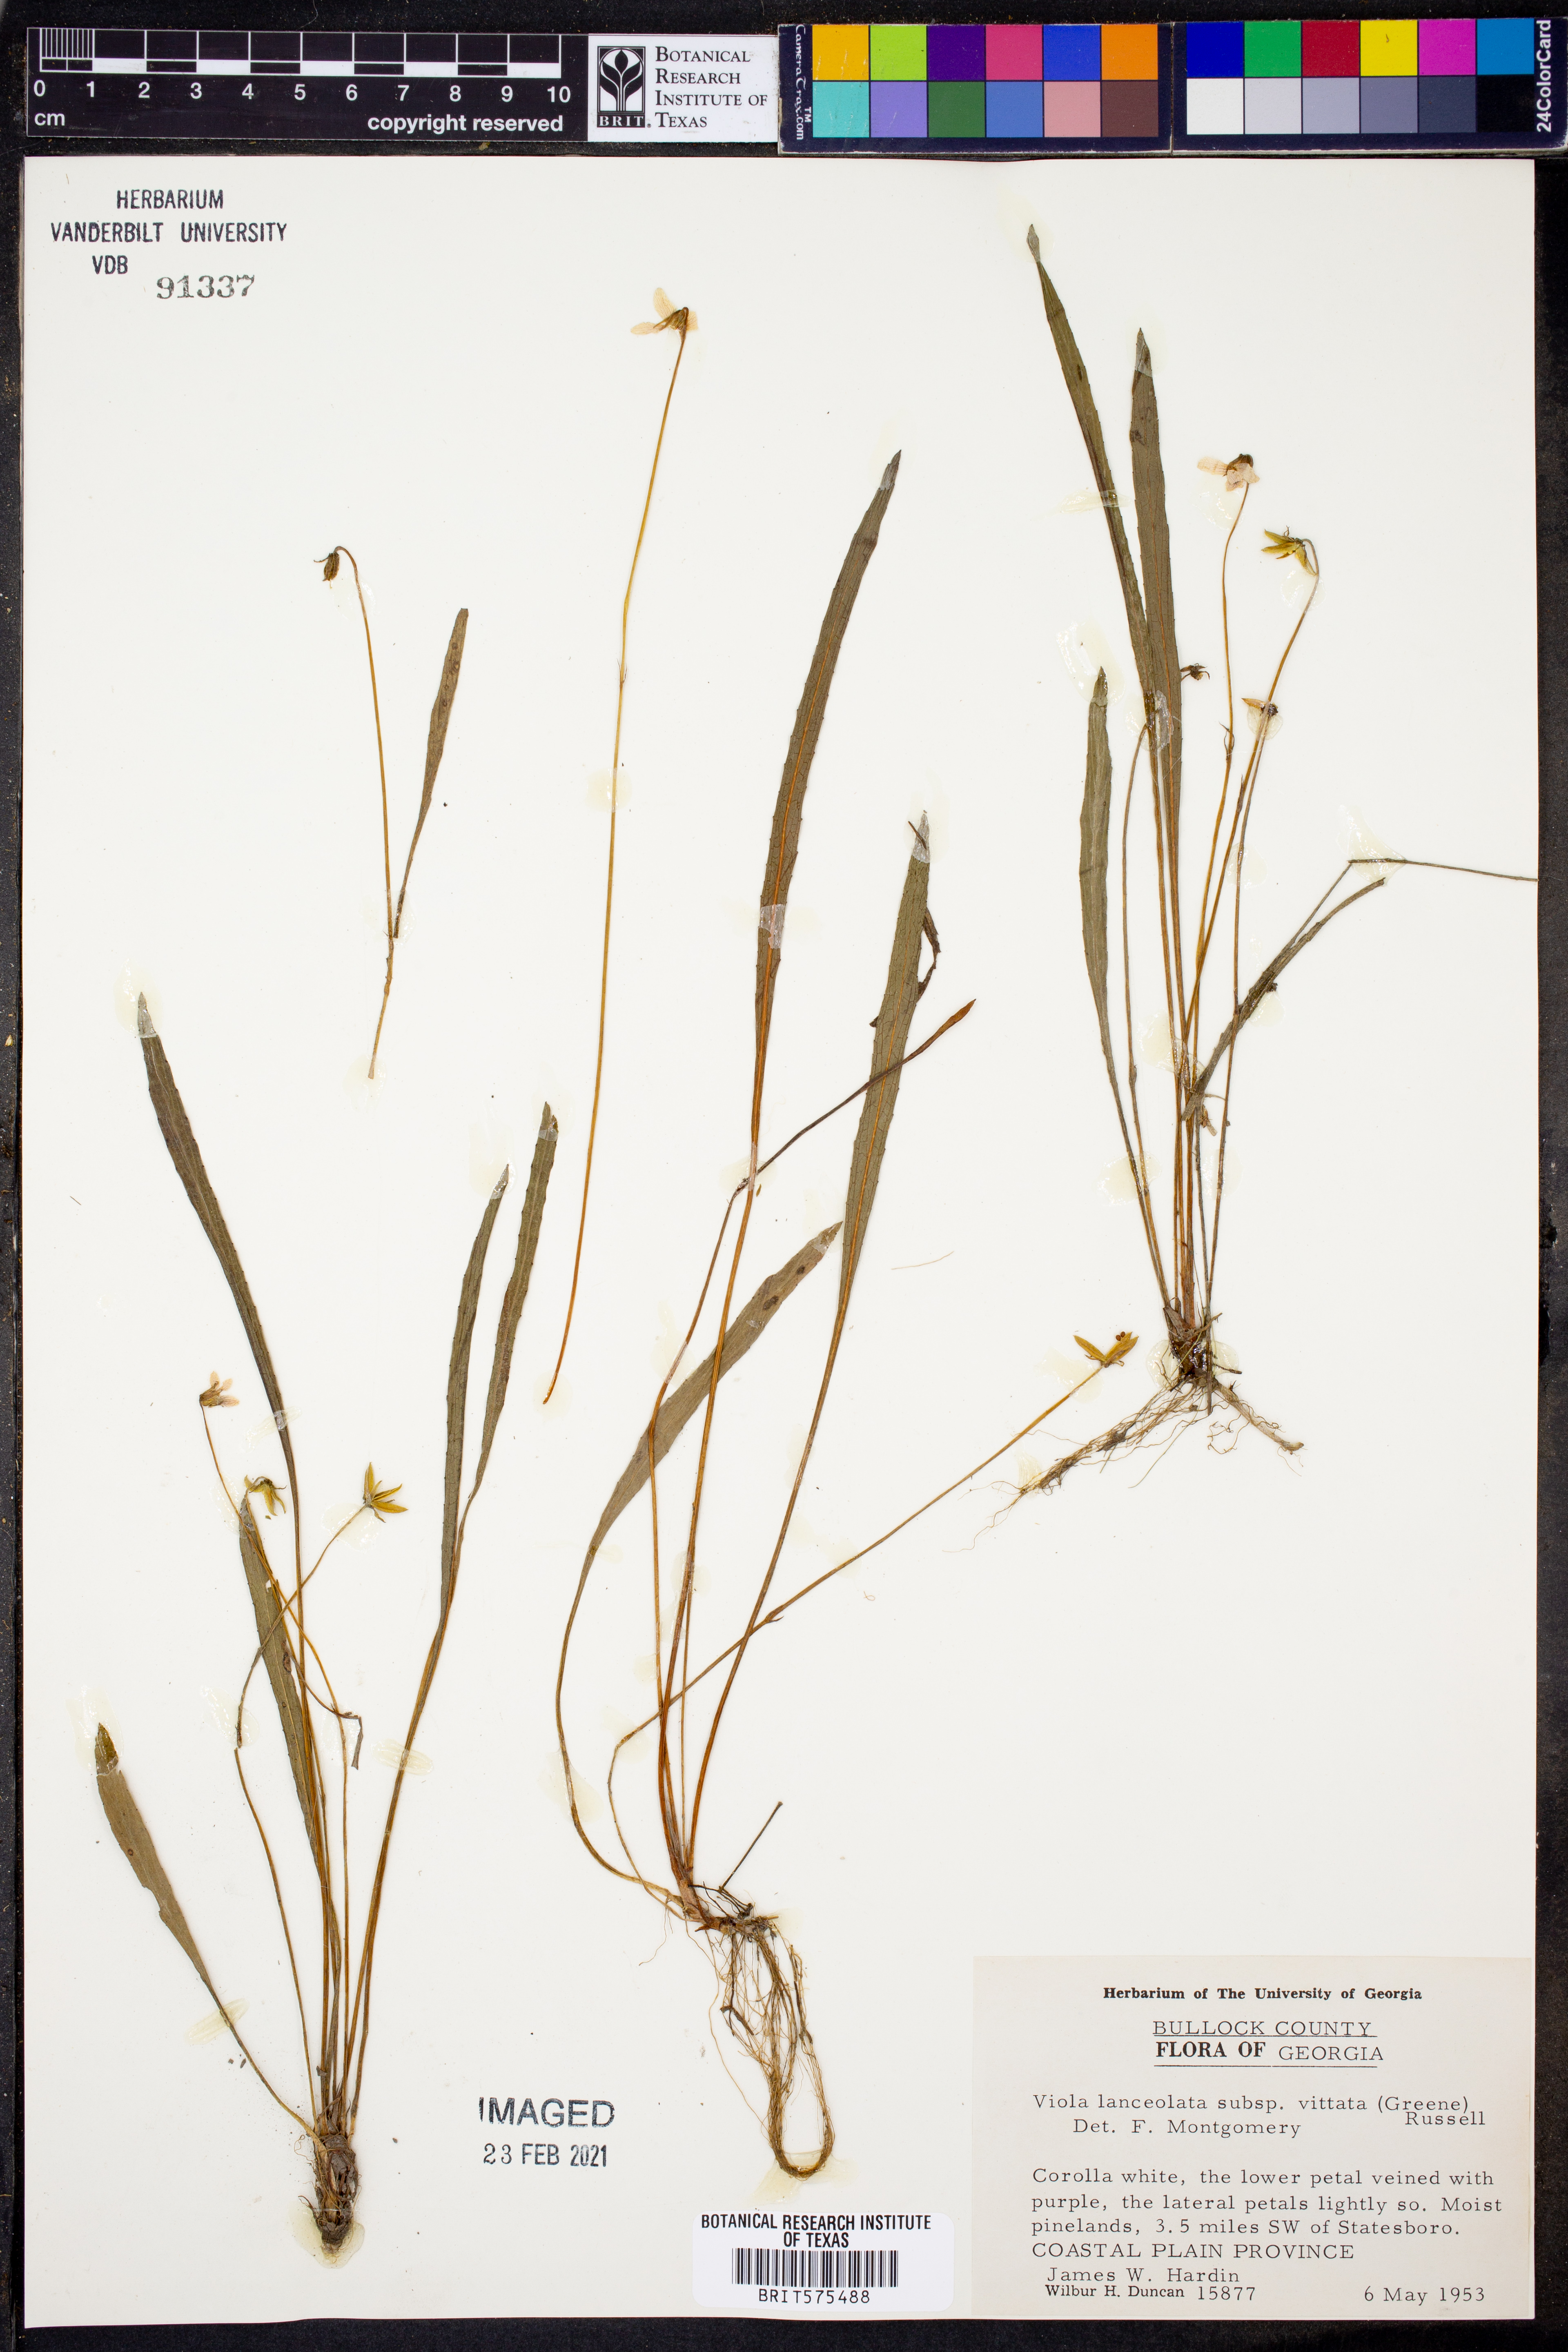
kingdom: Plantae
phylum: Tracheophyta
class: Magnoliopsida
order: Malpighiales
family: Violaceae
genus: Viola
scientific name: Viola vittata
